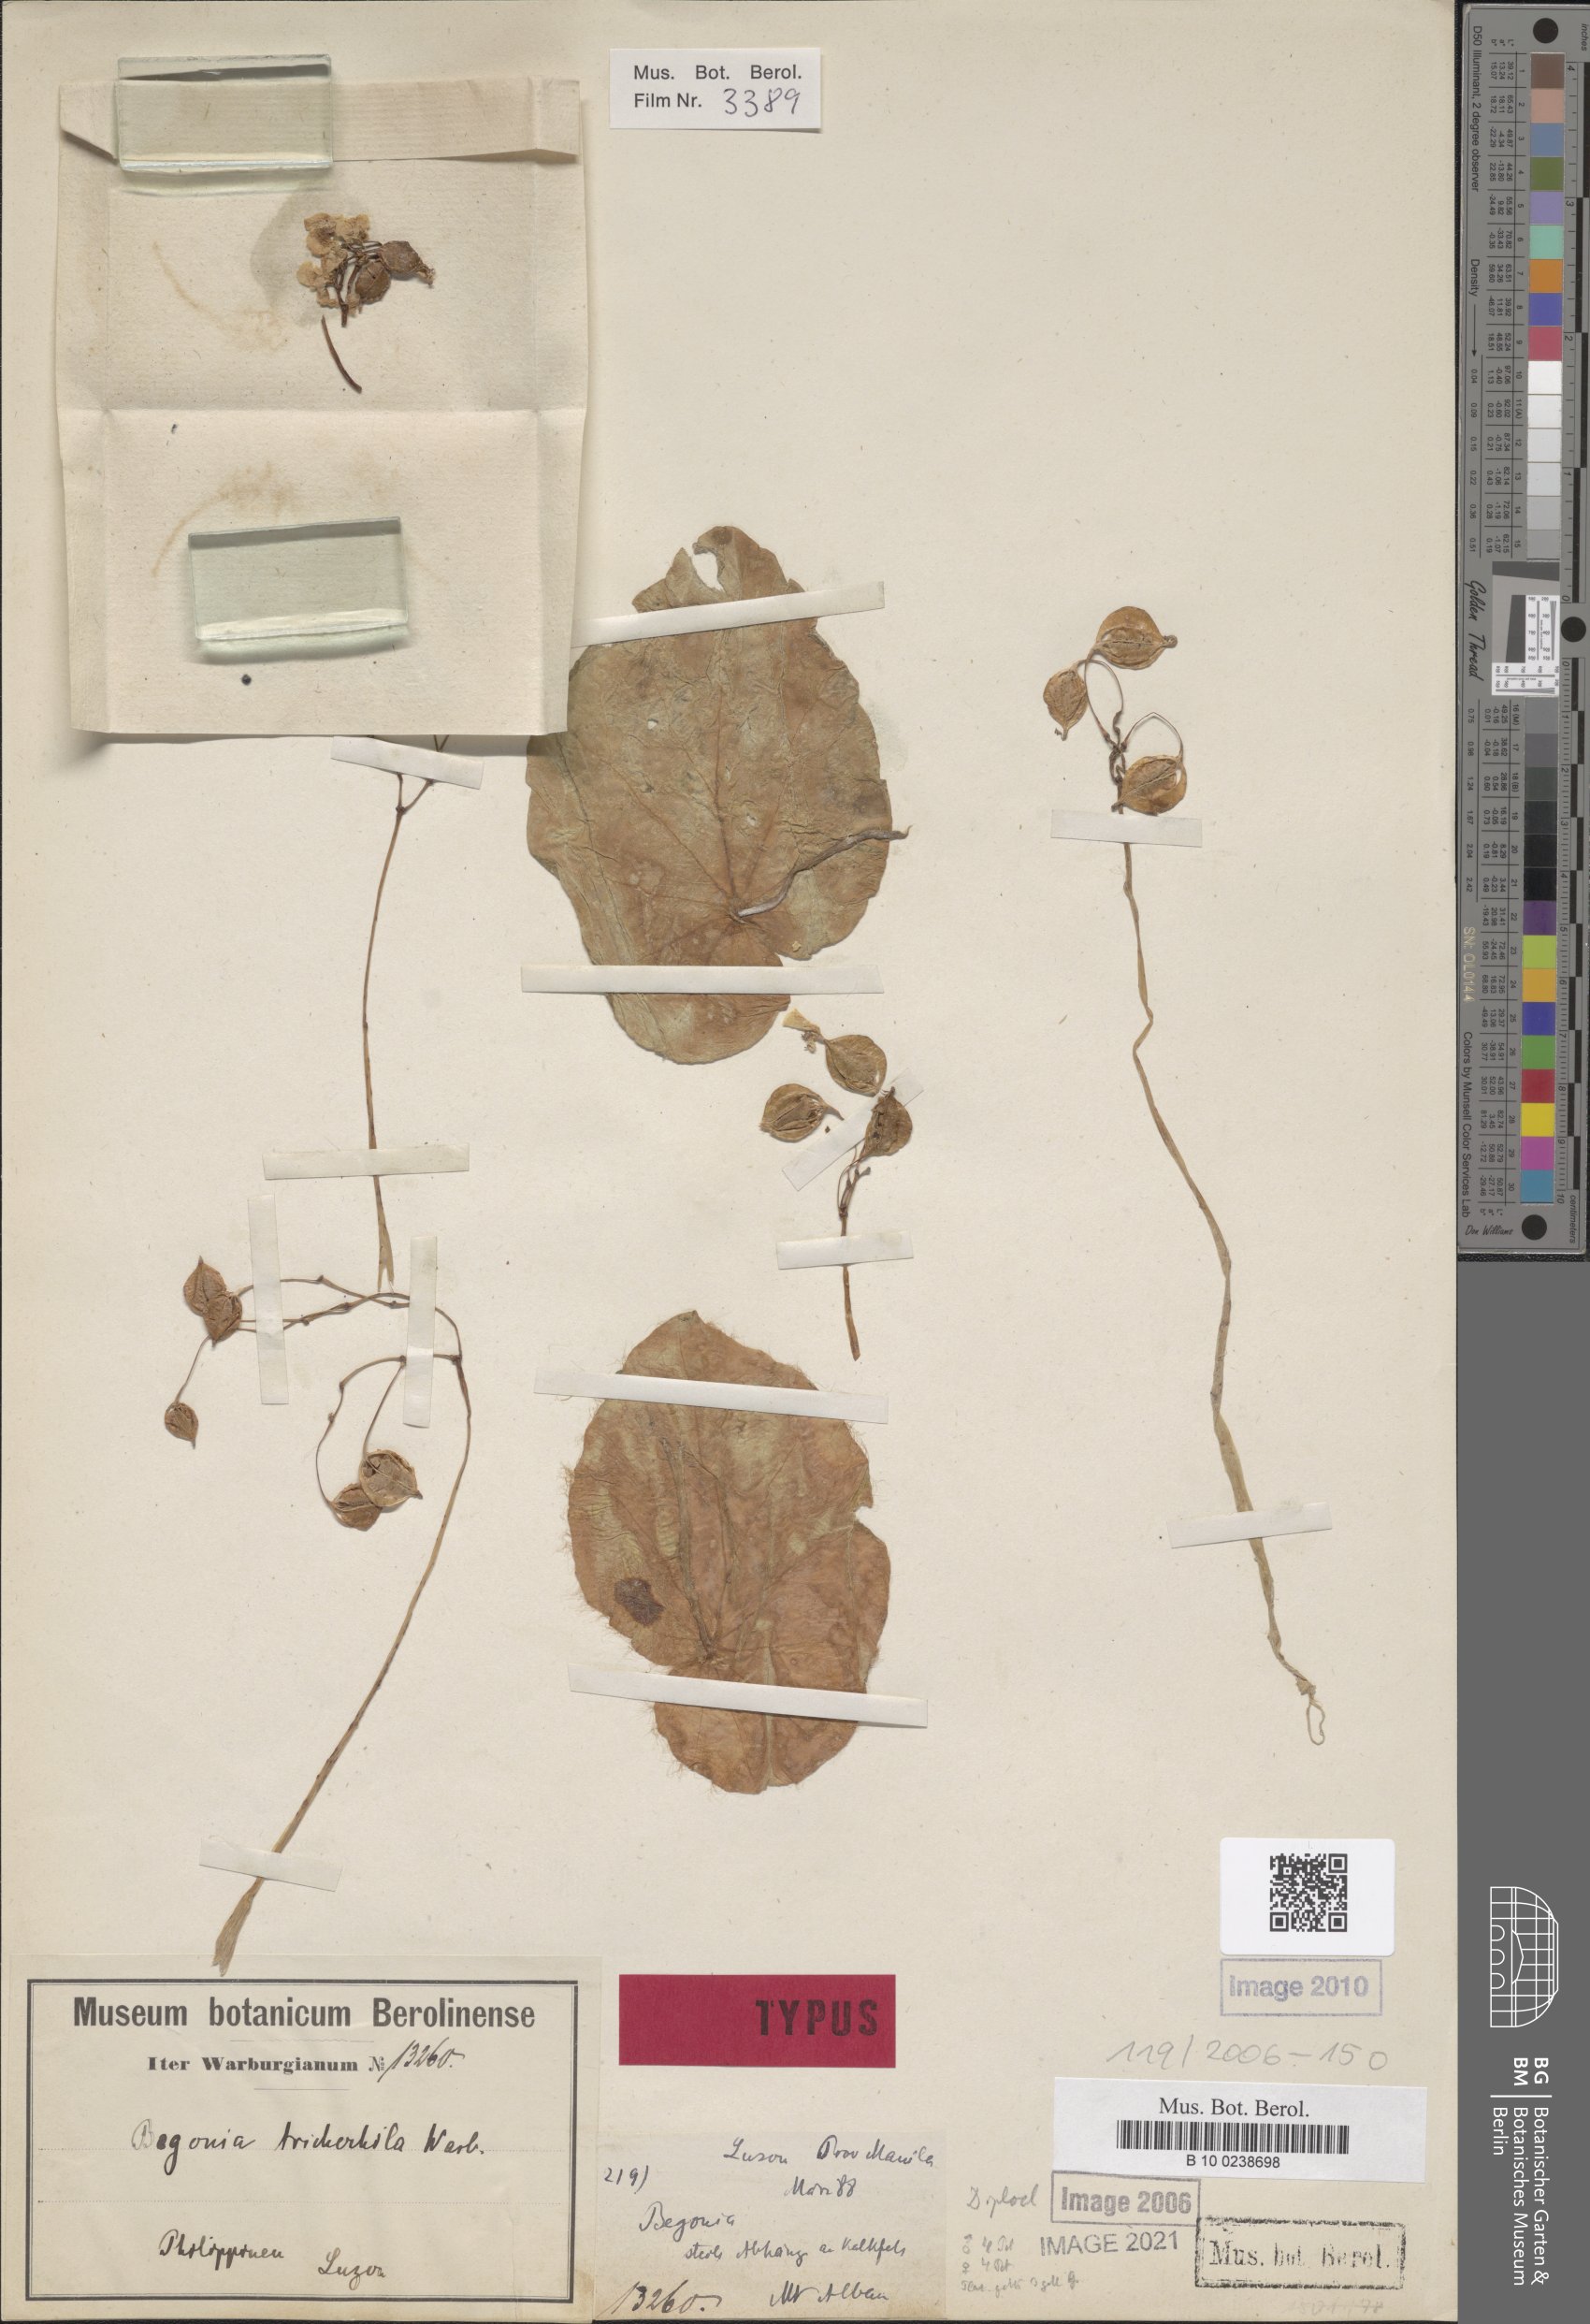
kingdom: Plantae
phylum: Tracheophyta
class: Magnoliopsida
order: Cucurbitales
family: Begoniaceae
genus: Begonia
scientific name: Begonia trichochila
